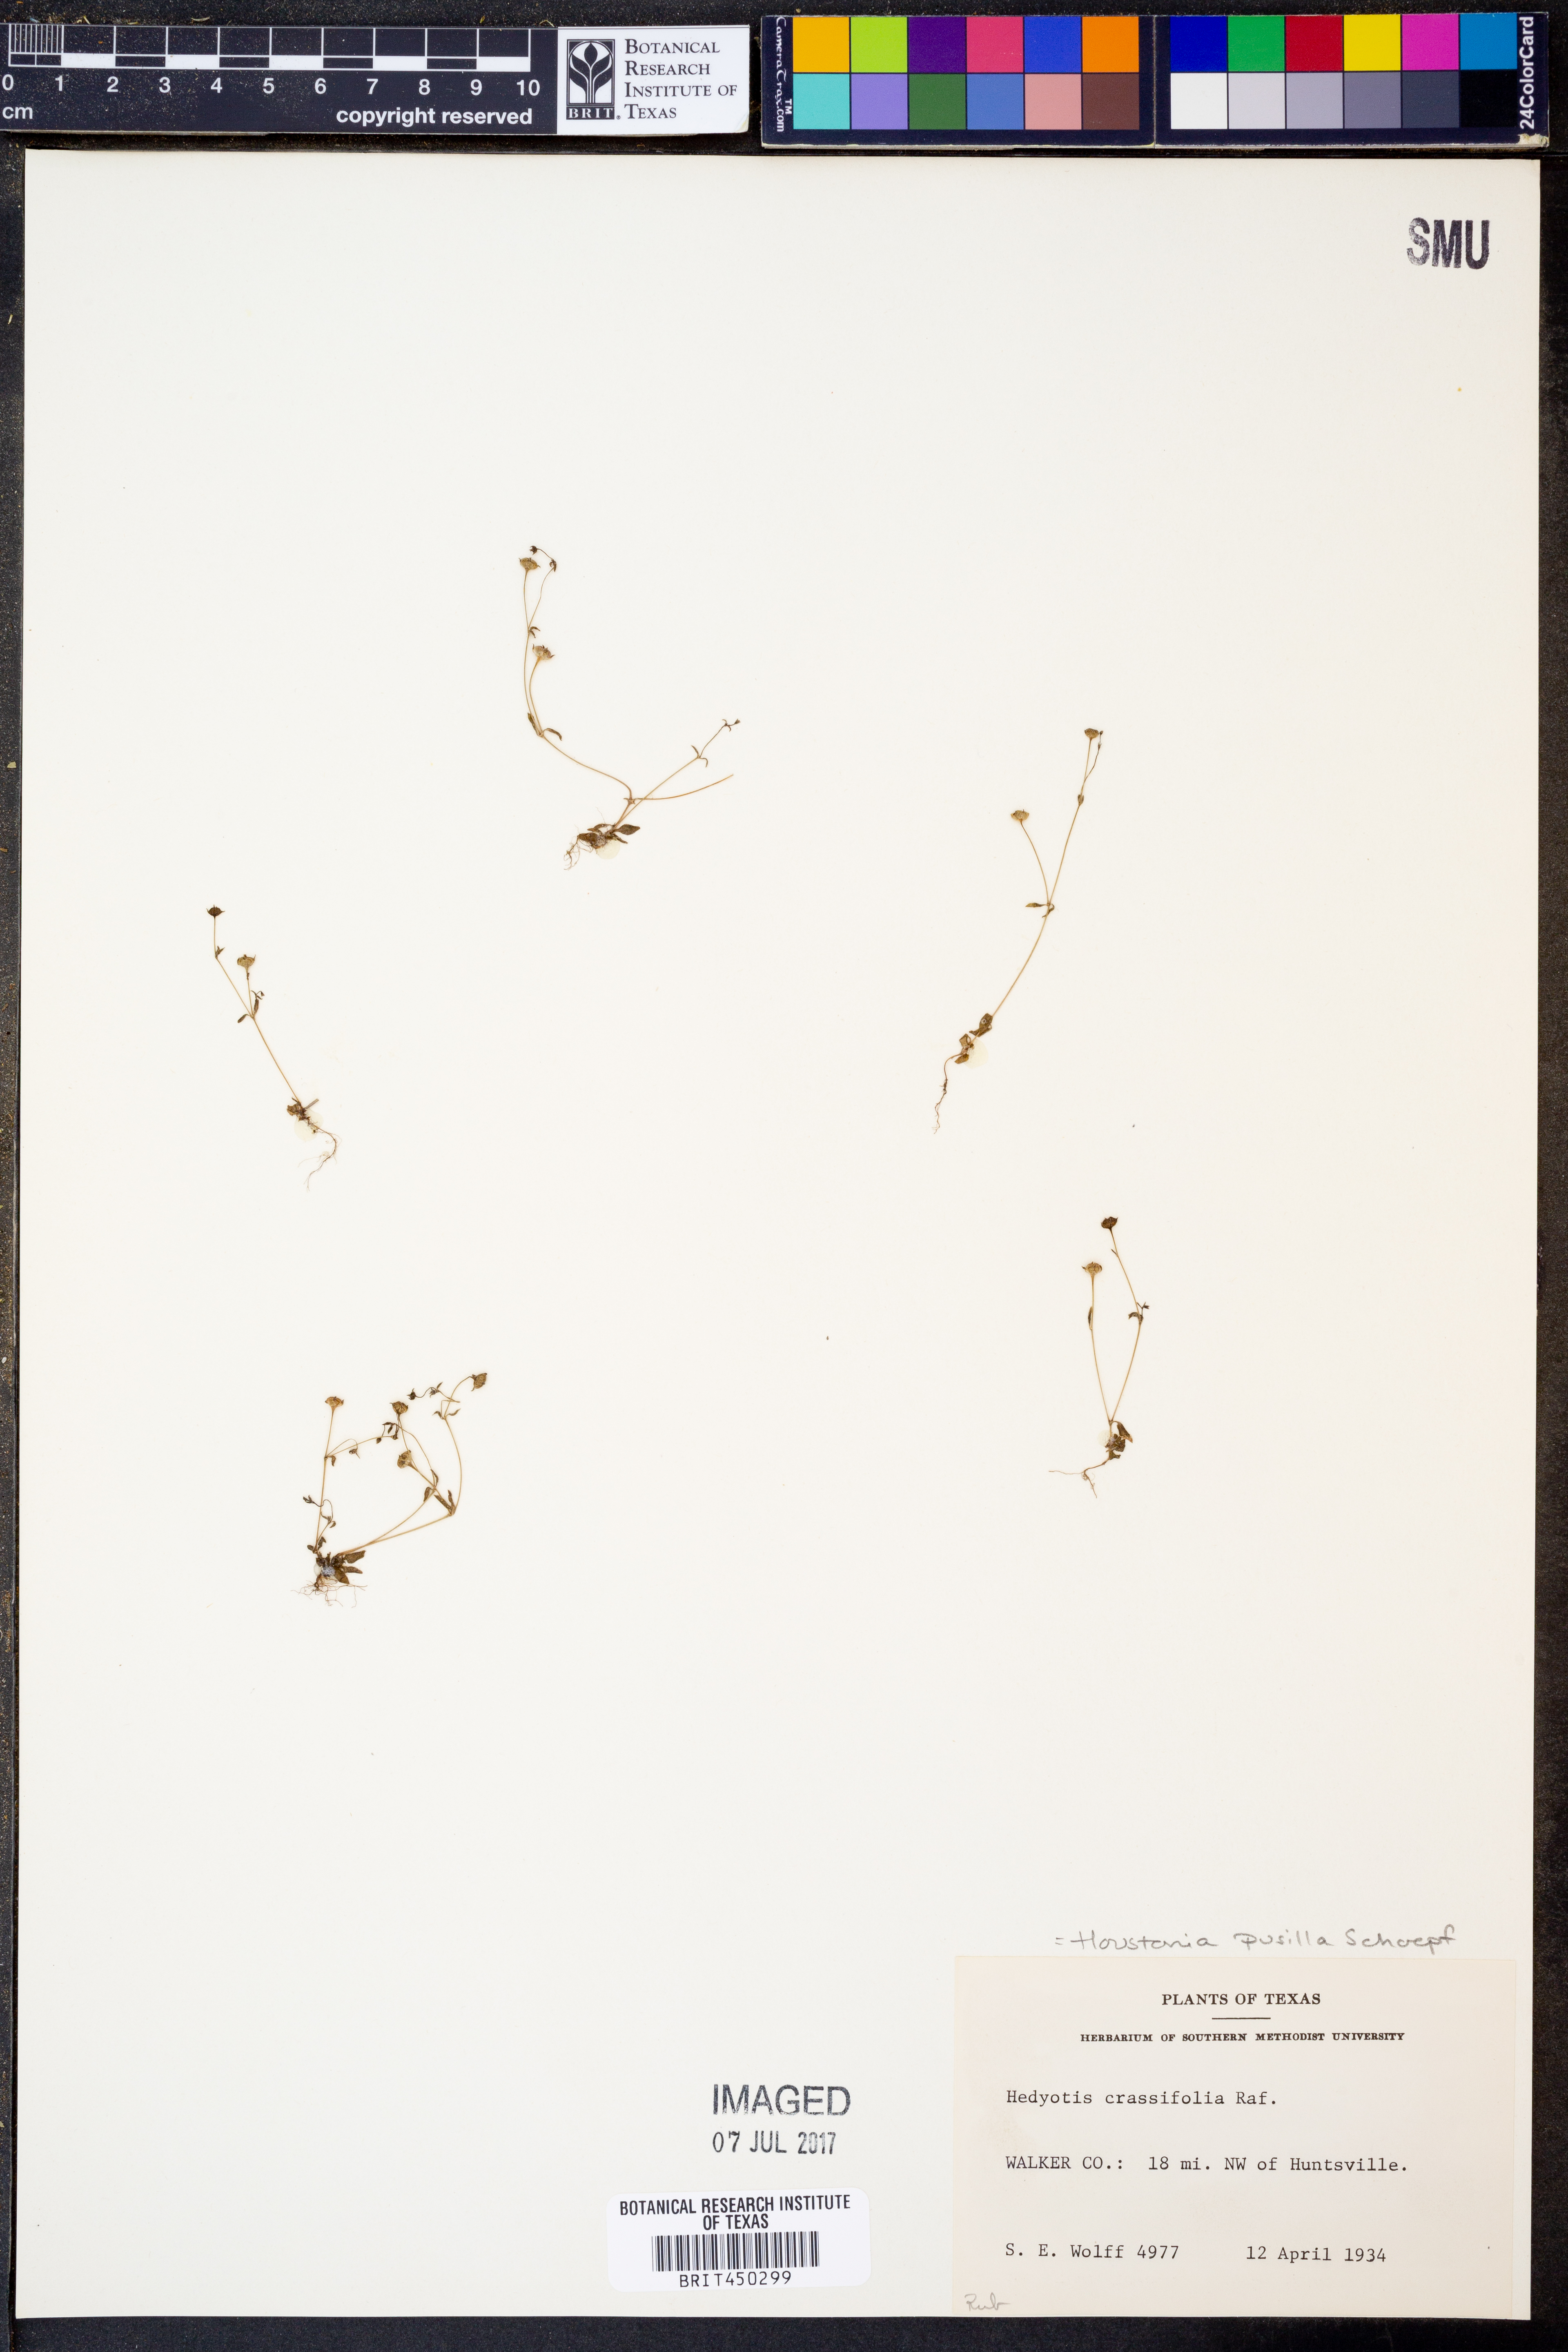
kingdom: Plantae
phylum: Tracheophyta
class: Magnoliopsida
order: Gentianales
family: Rubiaceae
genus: Houstonia
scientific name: Houstonia pusilla
